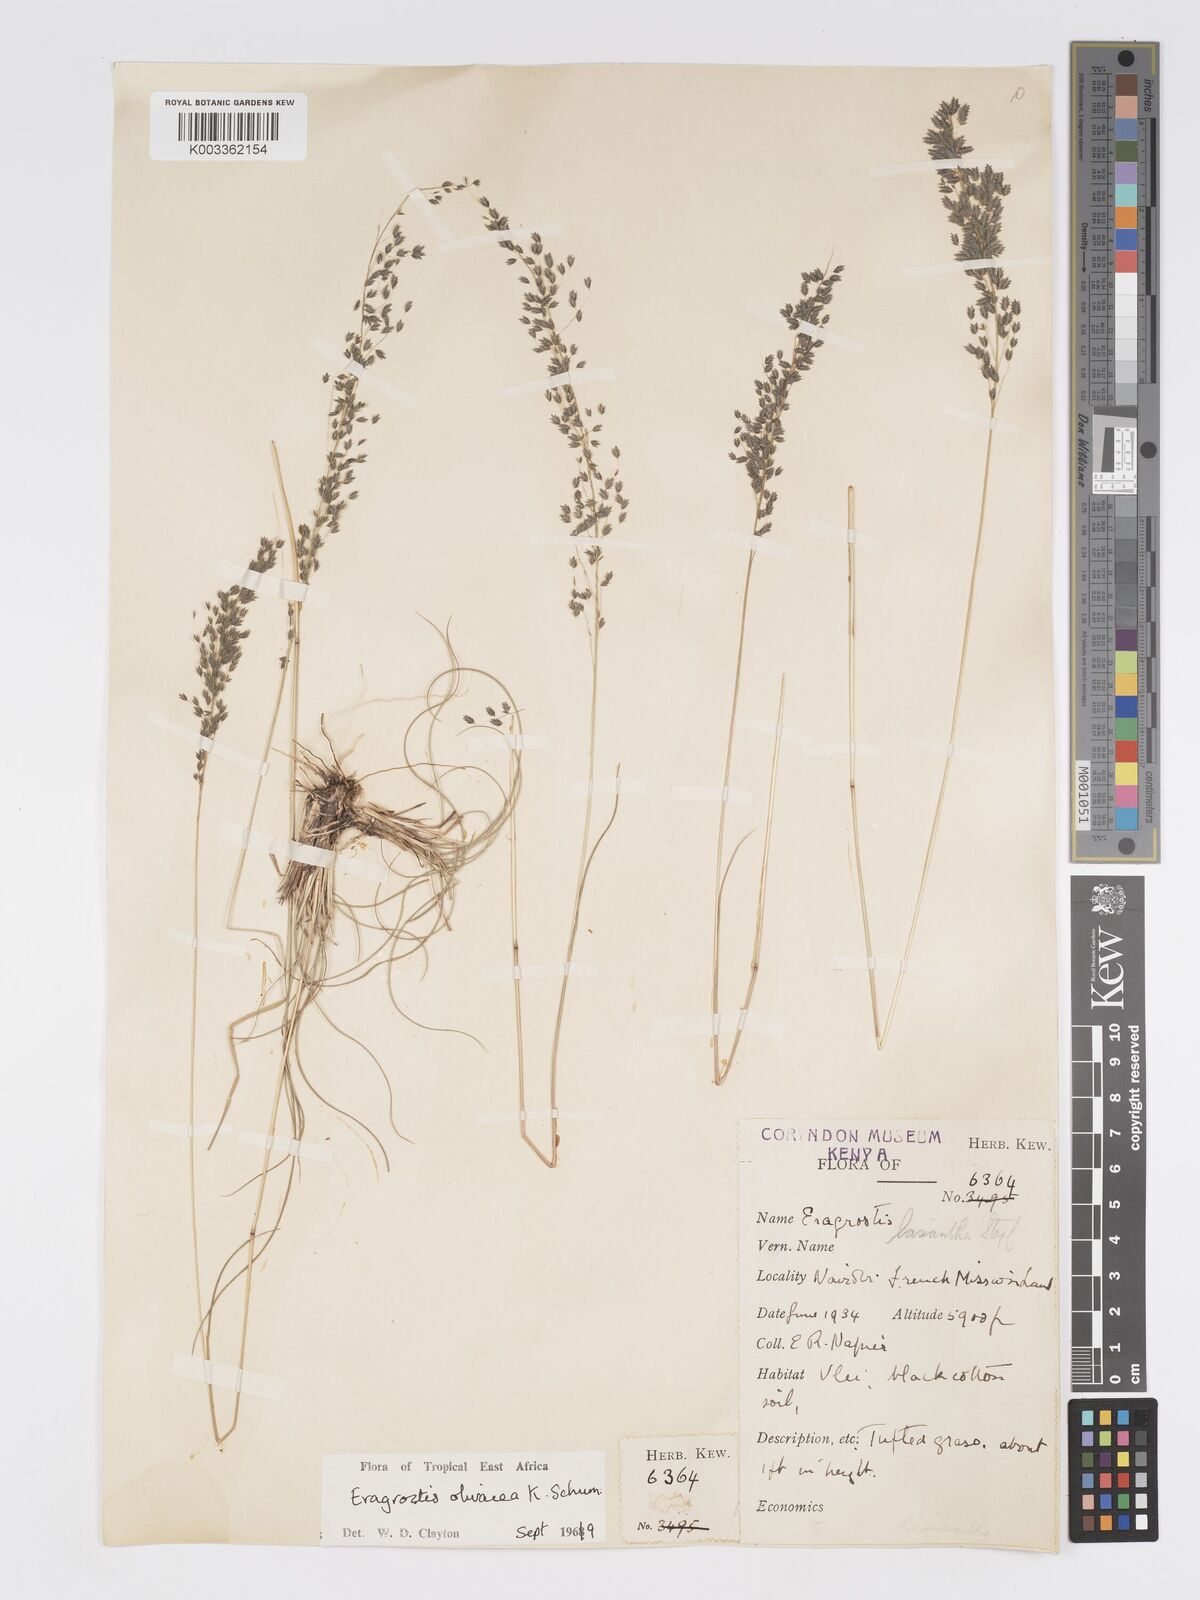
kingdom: Plantae
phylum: Tracheophyta
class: Liliopsida
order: Poales
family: Poaceae
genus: Eragrostis
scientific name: Eragrostis olivacea
